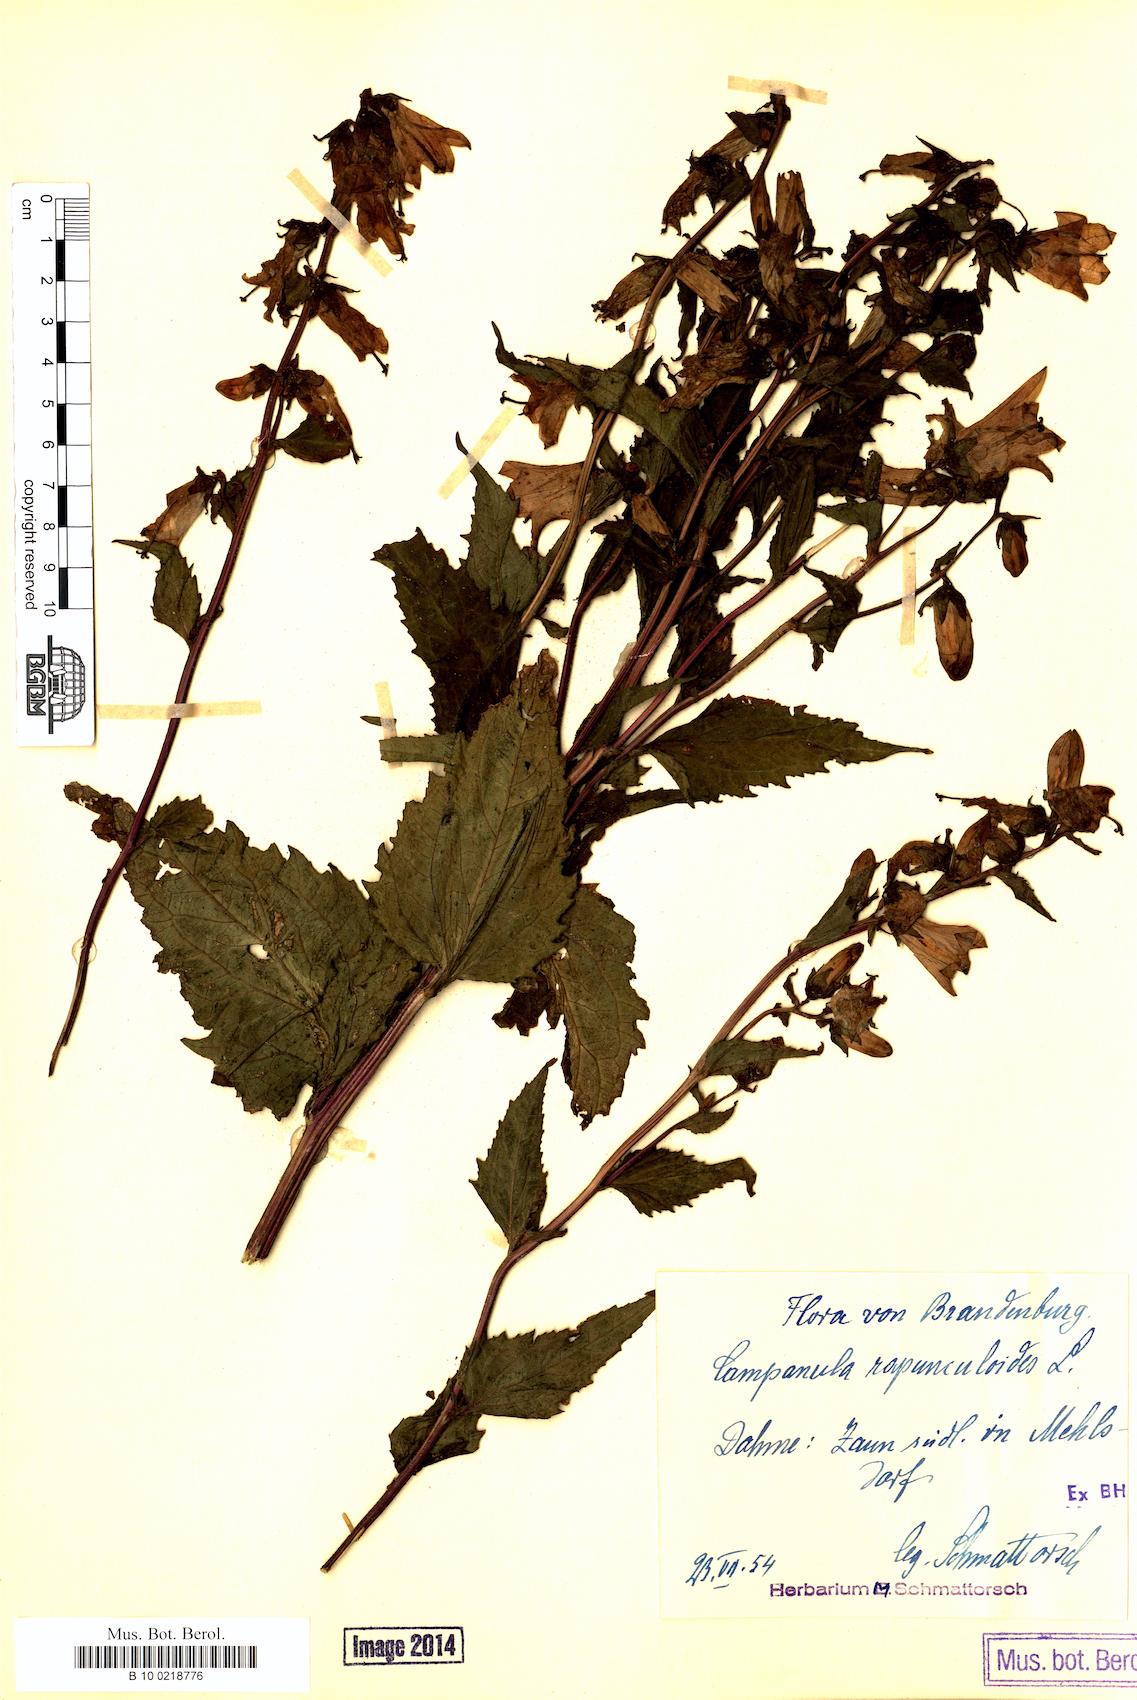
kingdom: Plantae
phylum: Tracheophyta
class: Magnoliopsida
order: Asterales
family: Campanulaceae
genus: Campanula
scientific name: Campanula rapunculoides
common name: Creeping bellflower
